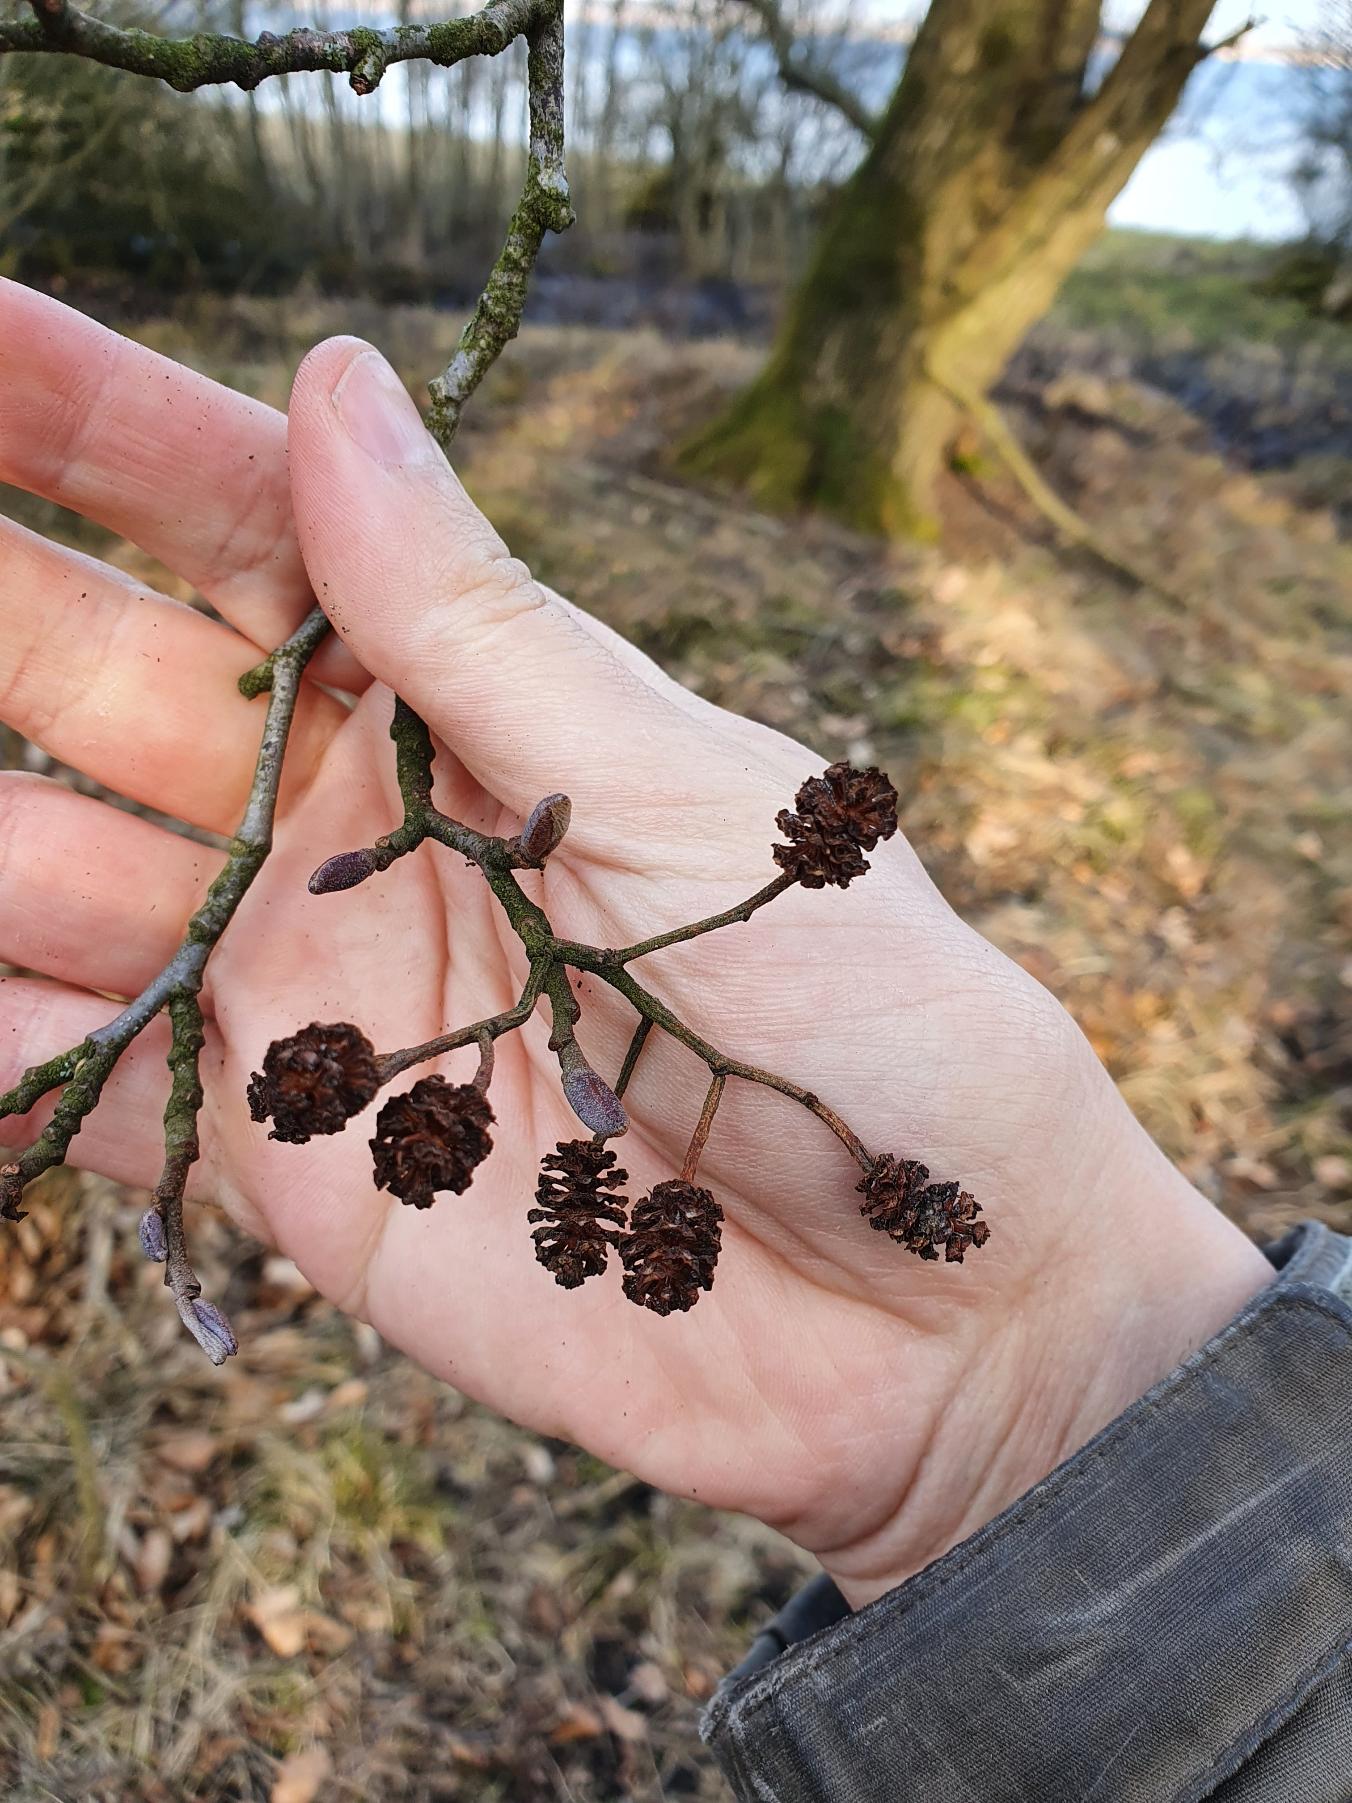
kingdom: Plantae
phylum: Tracheophyta
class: Magnoliopsida
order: Fagales
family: Betulaceae
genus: Alnus
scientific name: Alnus glutinosa
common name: Rød-el
